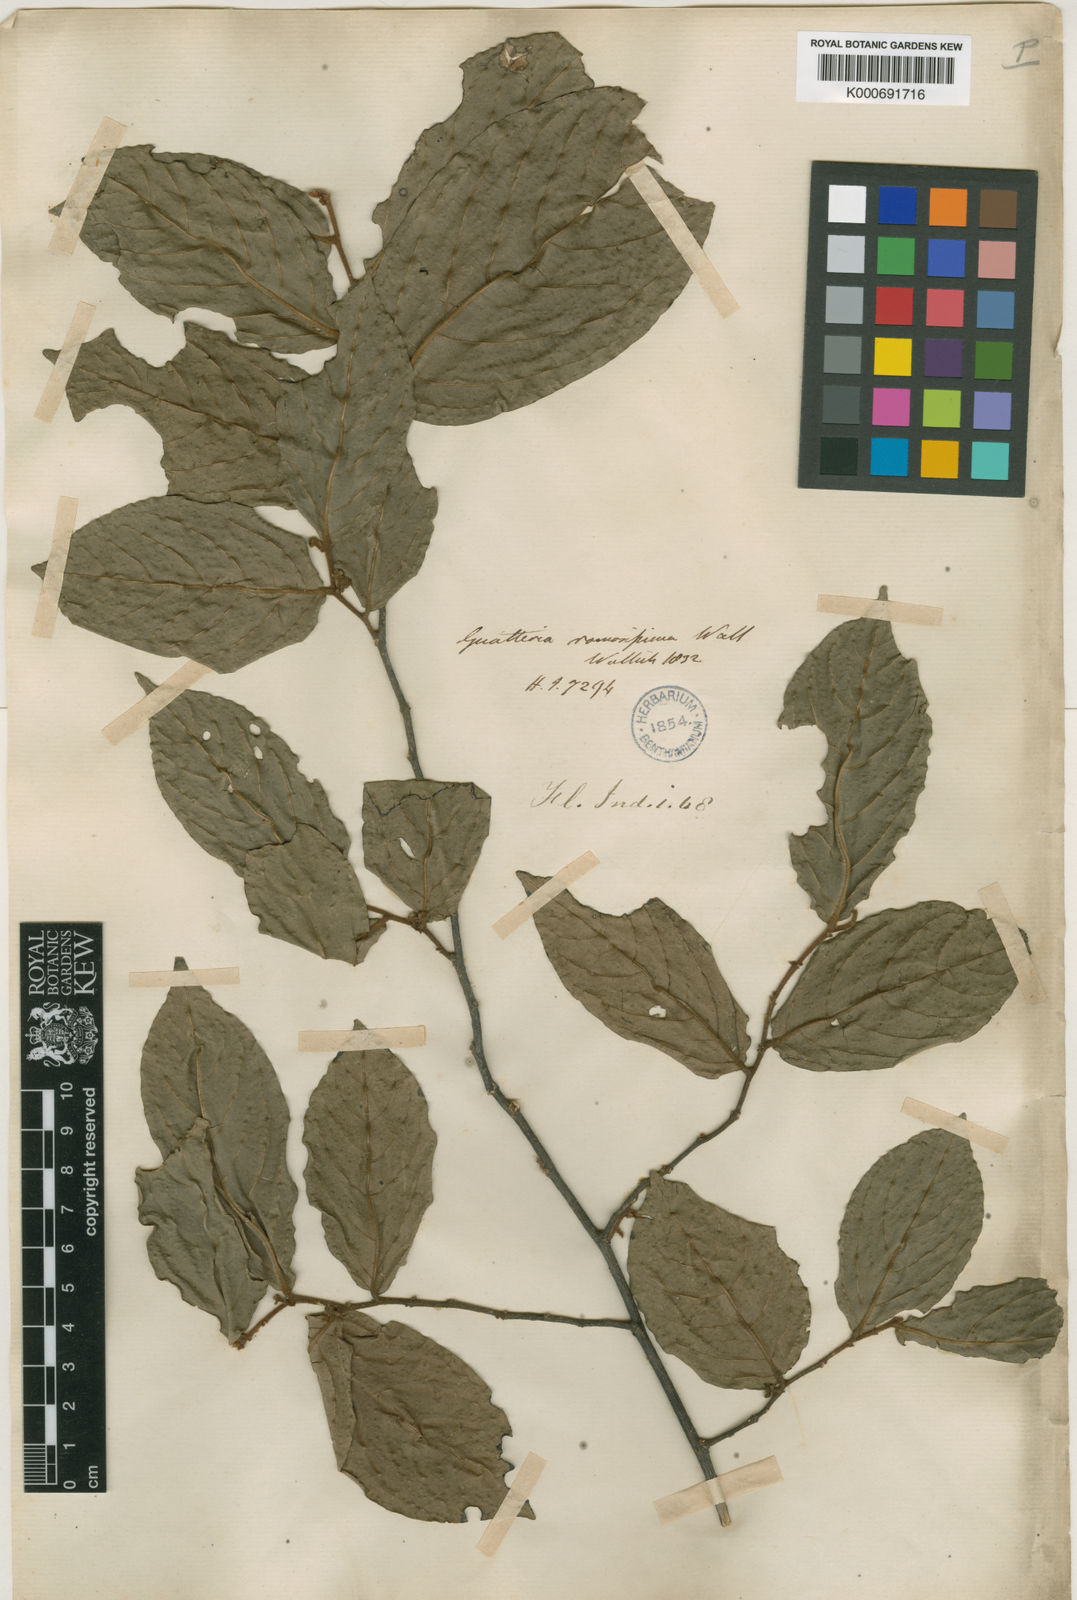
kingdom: Plantae
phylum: Tracheophyta
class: Magnoliopsida
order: Magnoliales
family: Annonaceae
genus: Popowia
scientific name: Popowia
